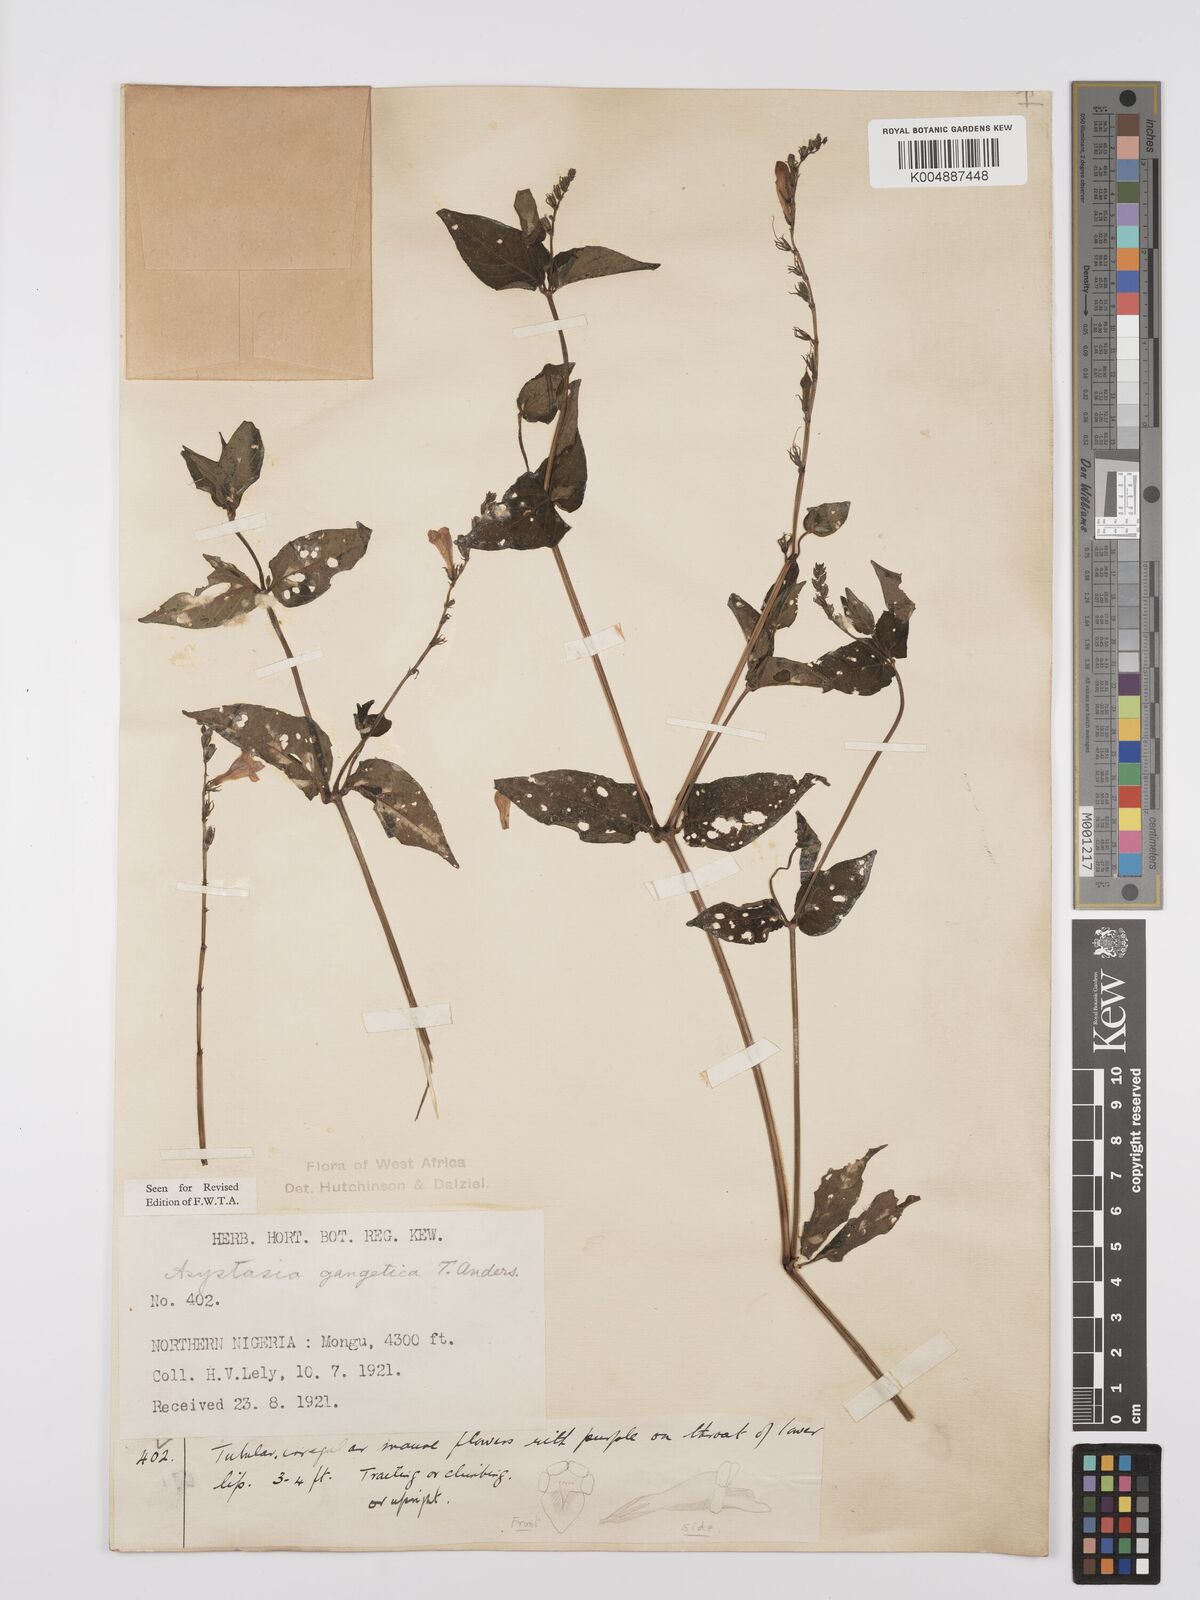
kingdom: Plantae
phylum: Tracheophyta
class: Magnoliopsida
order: Lamiales
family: Acanthaceae
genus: Asystasia
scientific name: Asystasia gangetica
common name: Chinese violet
